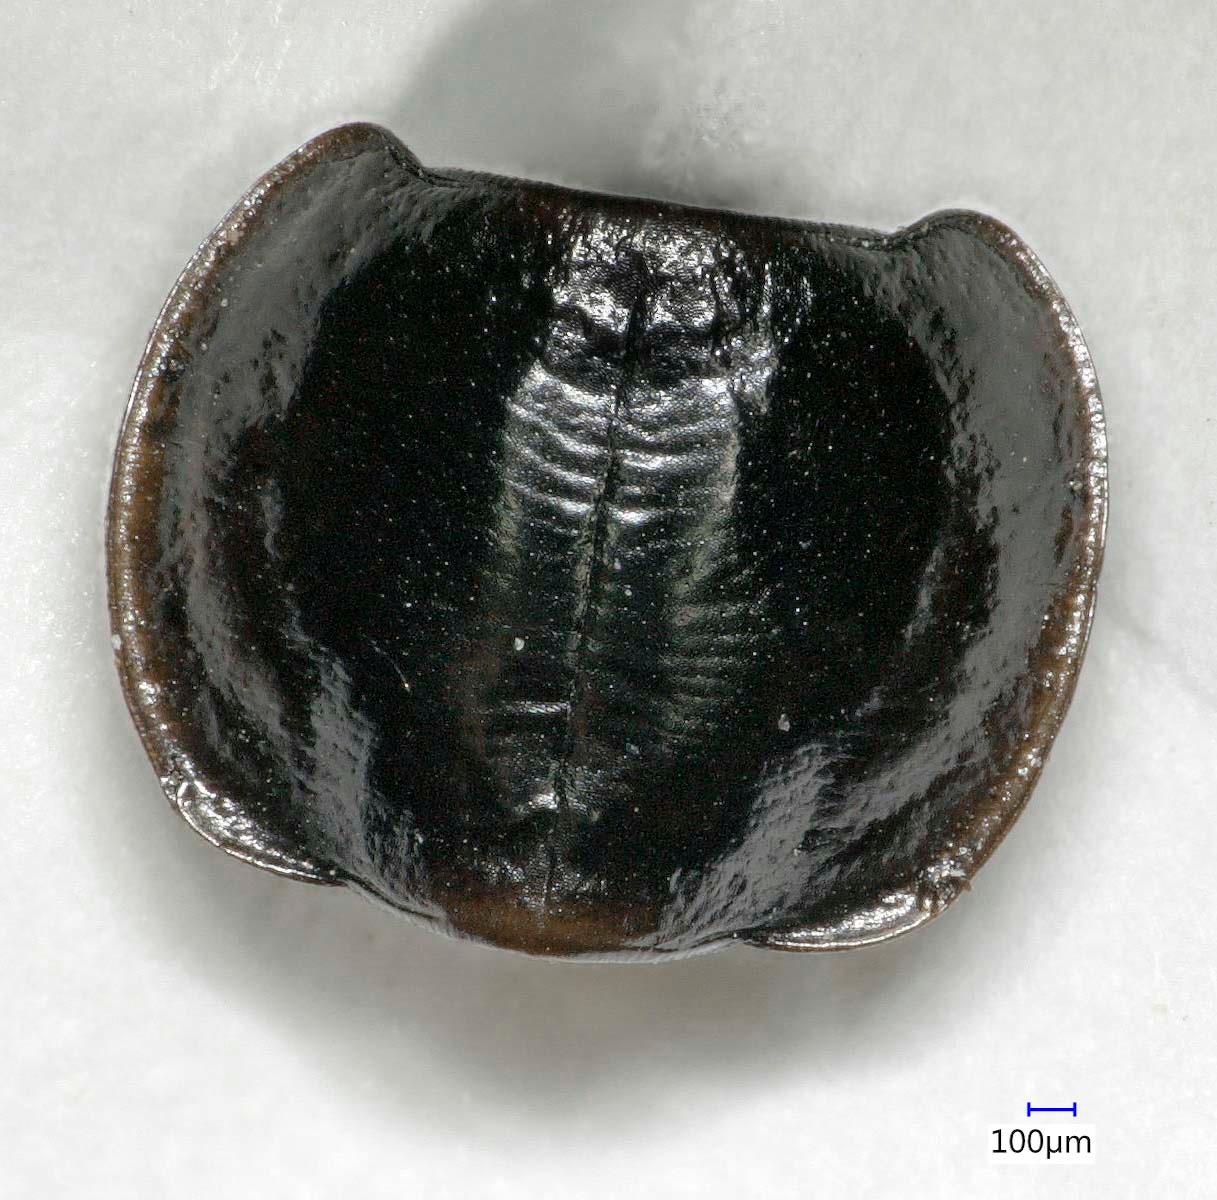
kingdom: Animalia
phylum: Arthropoda
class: Insecta
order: Coleoptera
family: Carabidae
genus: Tanystoma
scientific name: Tanystoma maculicolle
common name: Tule beetle
